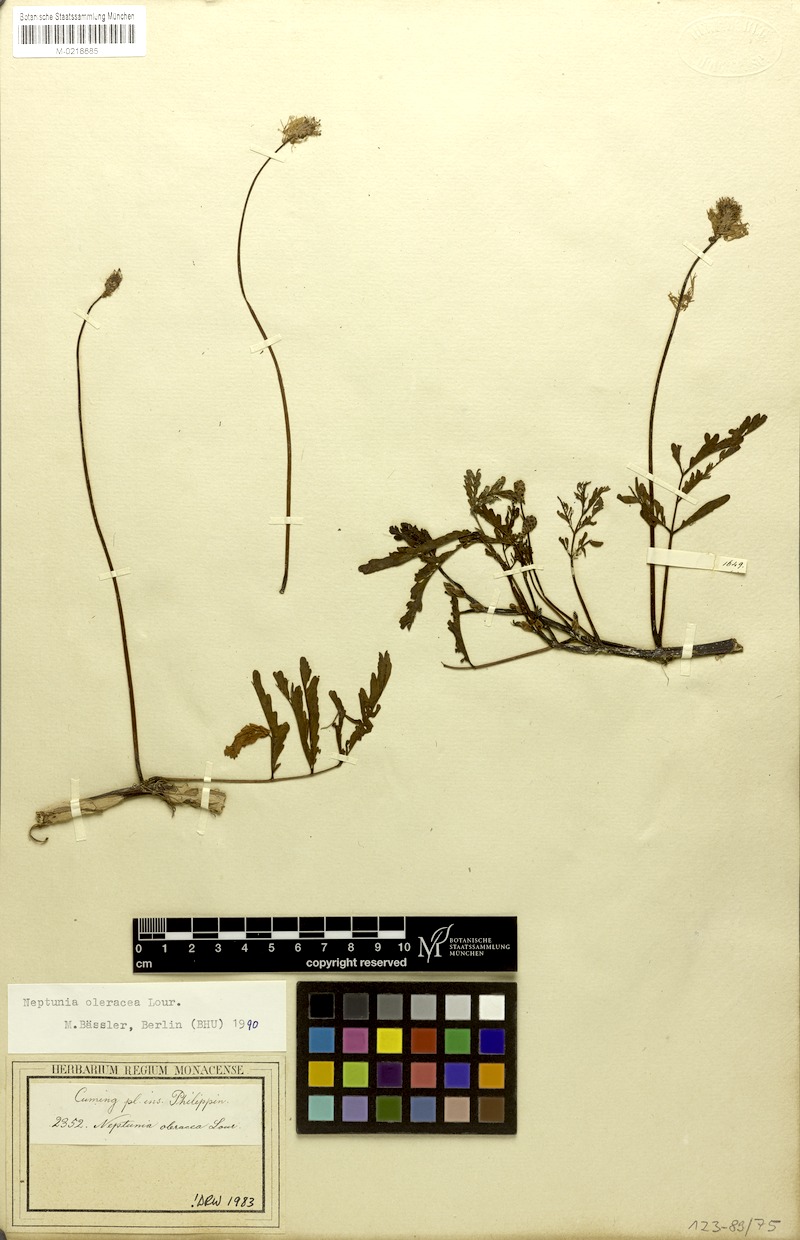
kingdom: Plantae
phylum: Tracheophyta
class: Magnoliopsida
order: Fabales
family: Fabaceae
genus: Neptunia
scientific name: Neptunia prostrata
